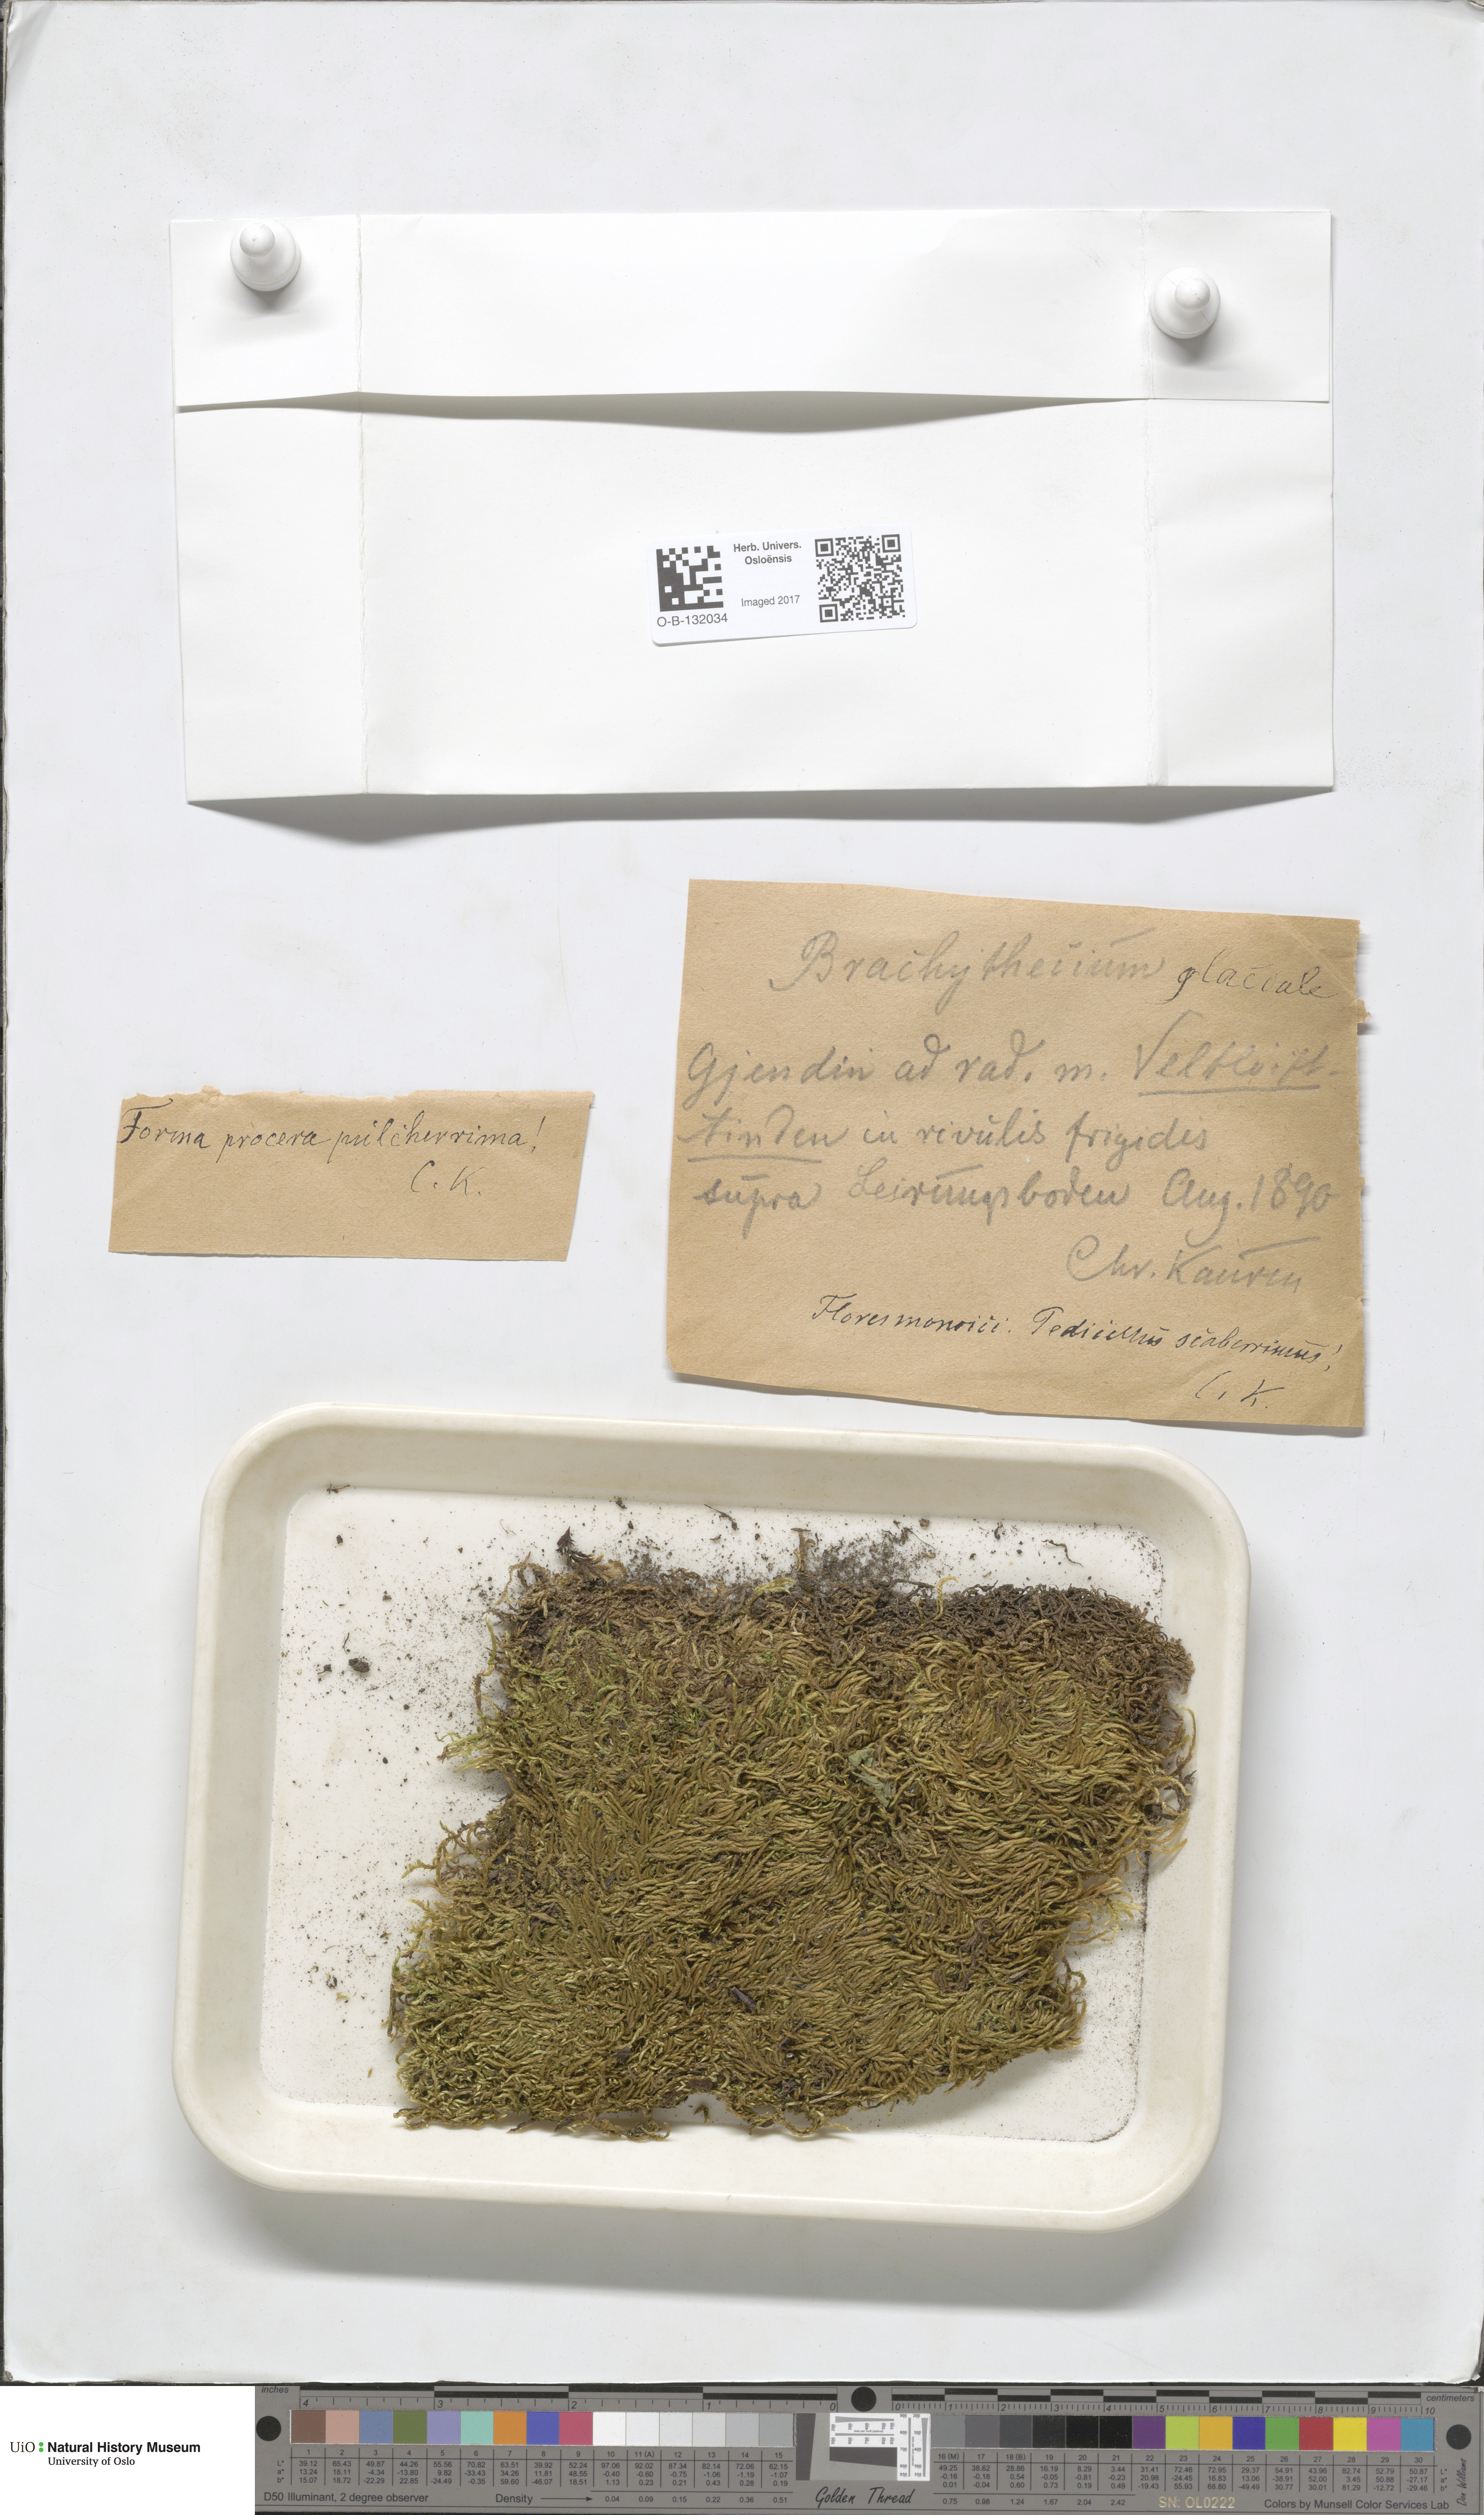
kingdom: Plantae
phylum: Bryophyta
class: Bryopsida
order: Hypnales
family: Brachytheciaceae
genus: Brachythecium
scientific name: Brachythecium erythrorrhizon
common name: Taiga ragged moss
